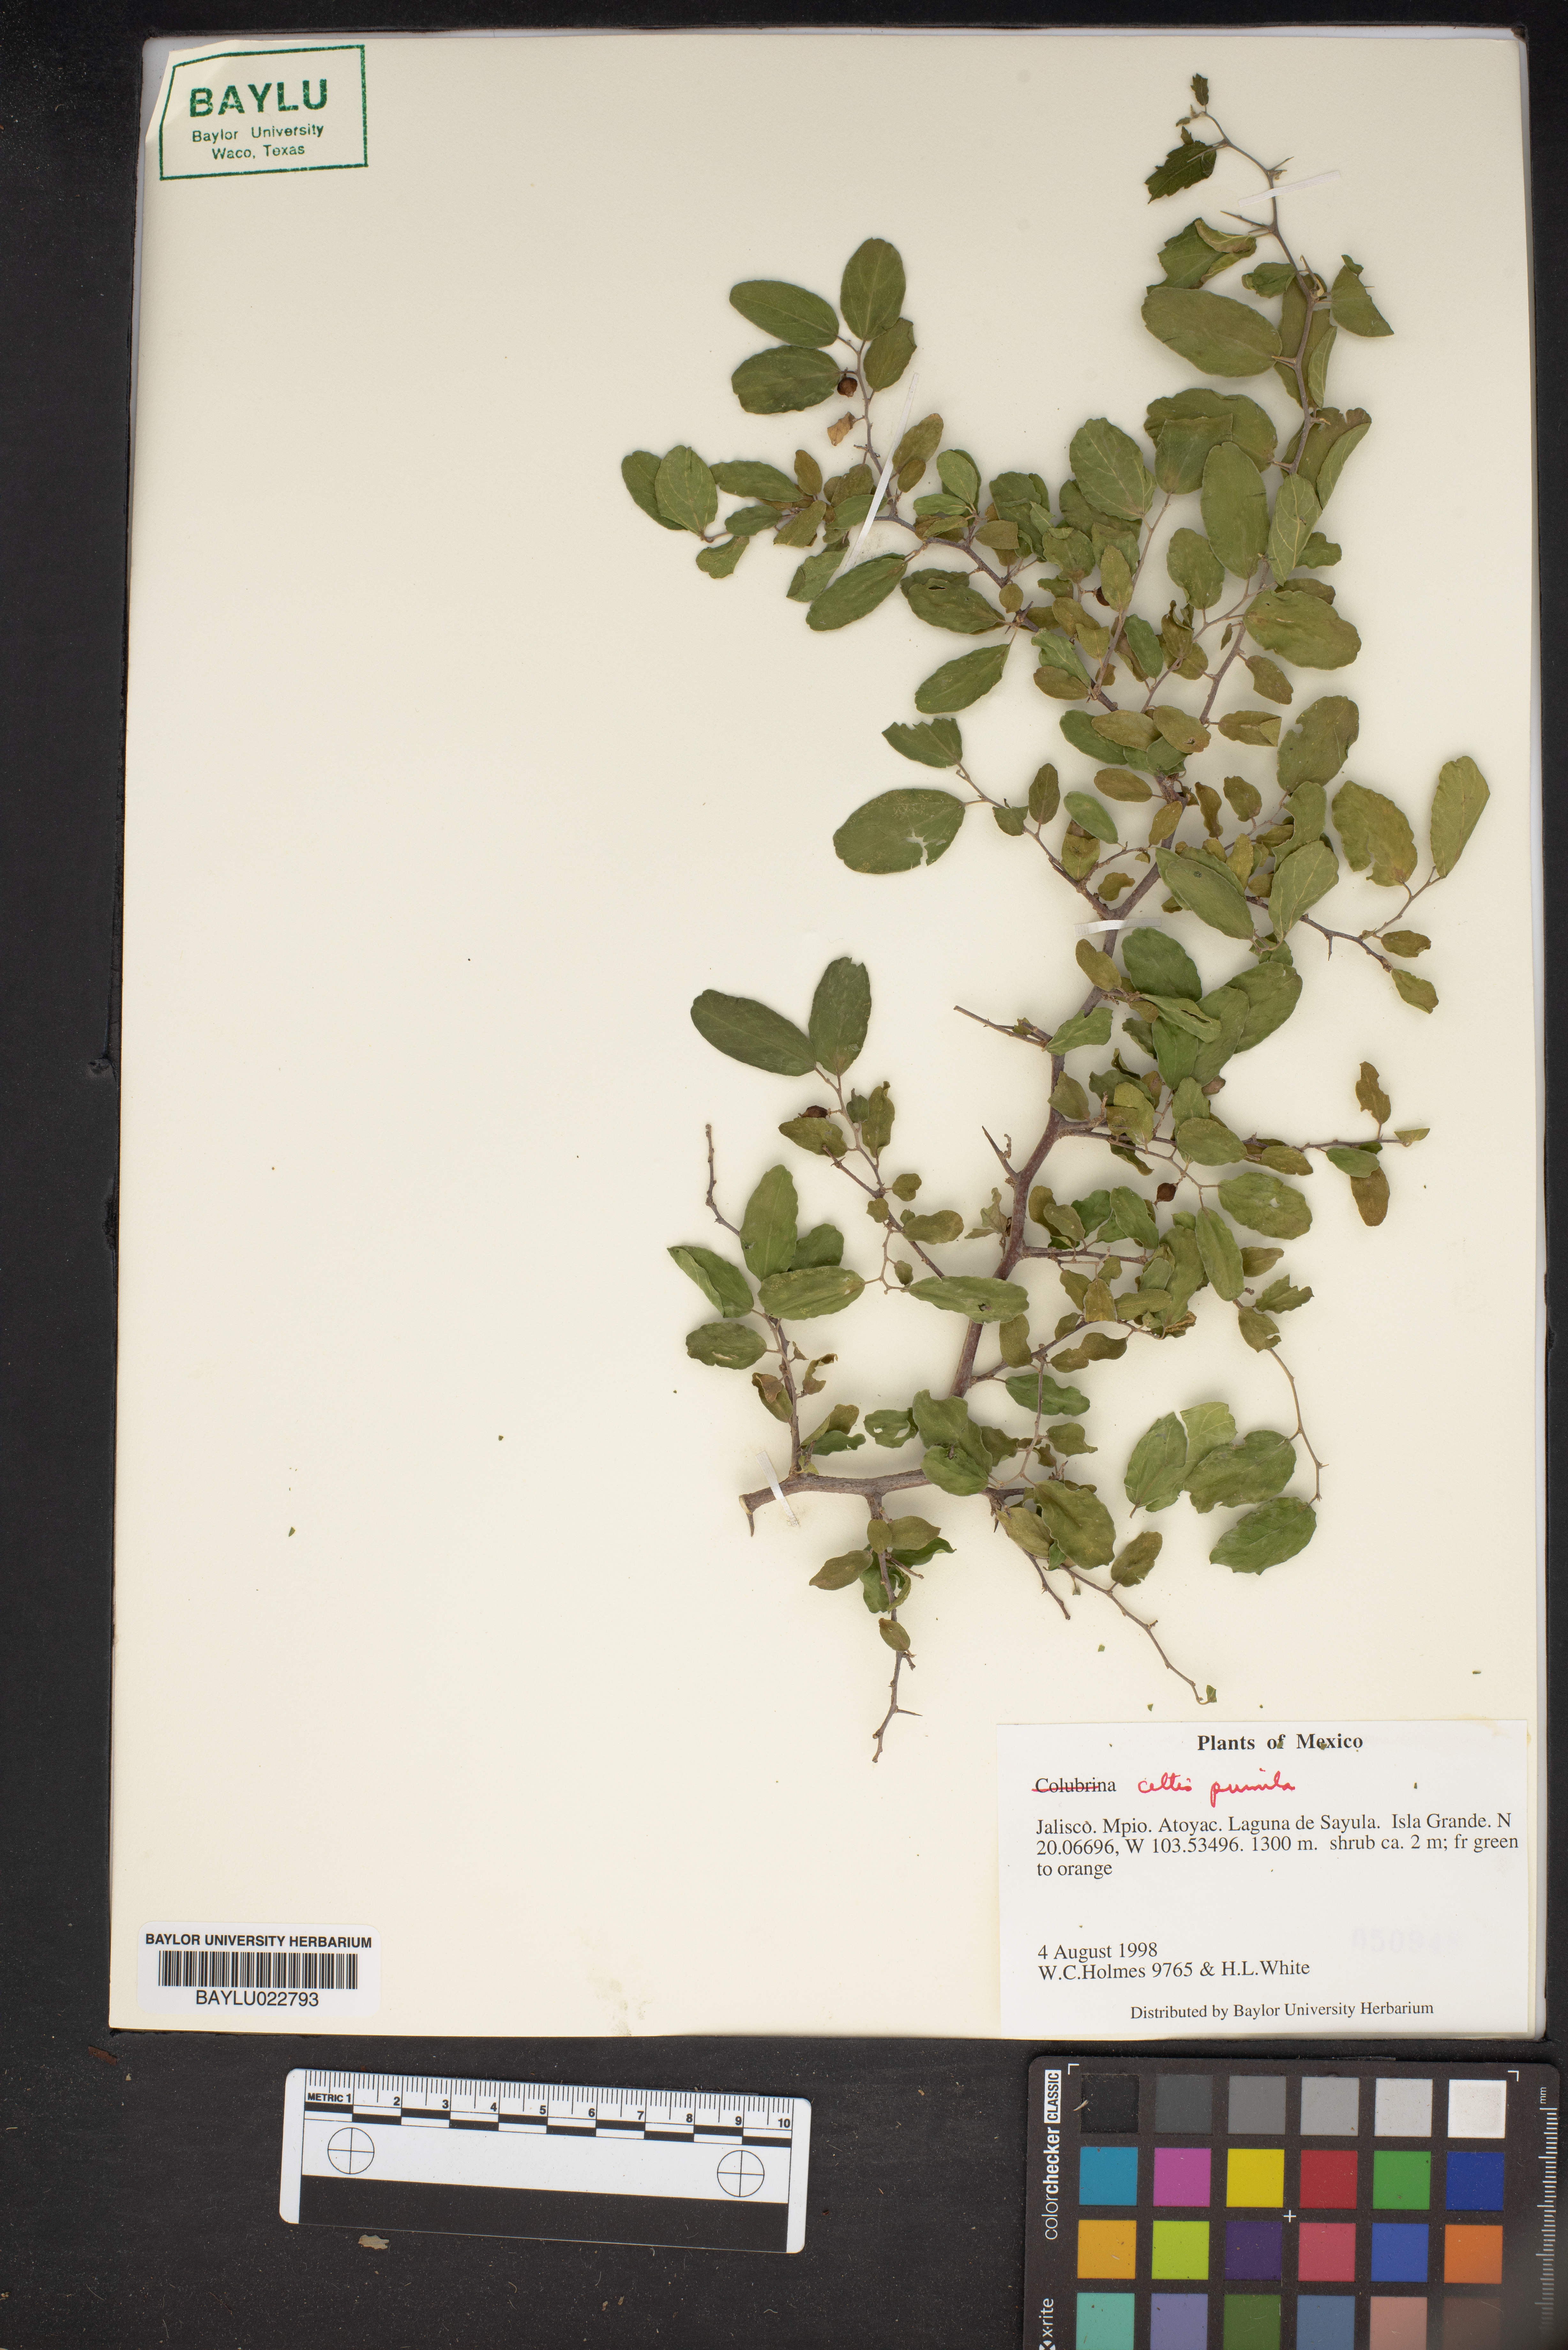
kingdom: Plantae
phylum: Tracheophyta
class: Magnoliopsida
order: Rosales
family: Cannabaceae
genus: Celtis
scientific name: Celtis occidentalis
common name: Common hackberry
